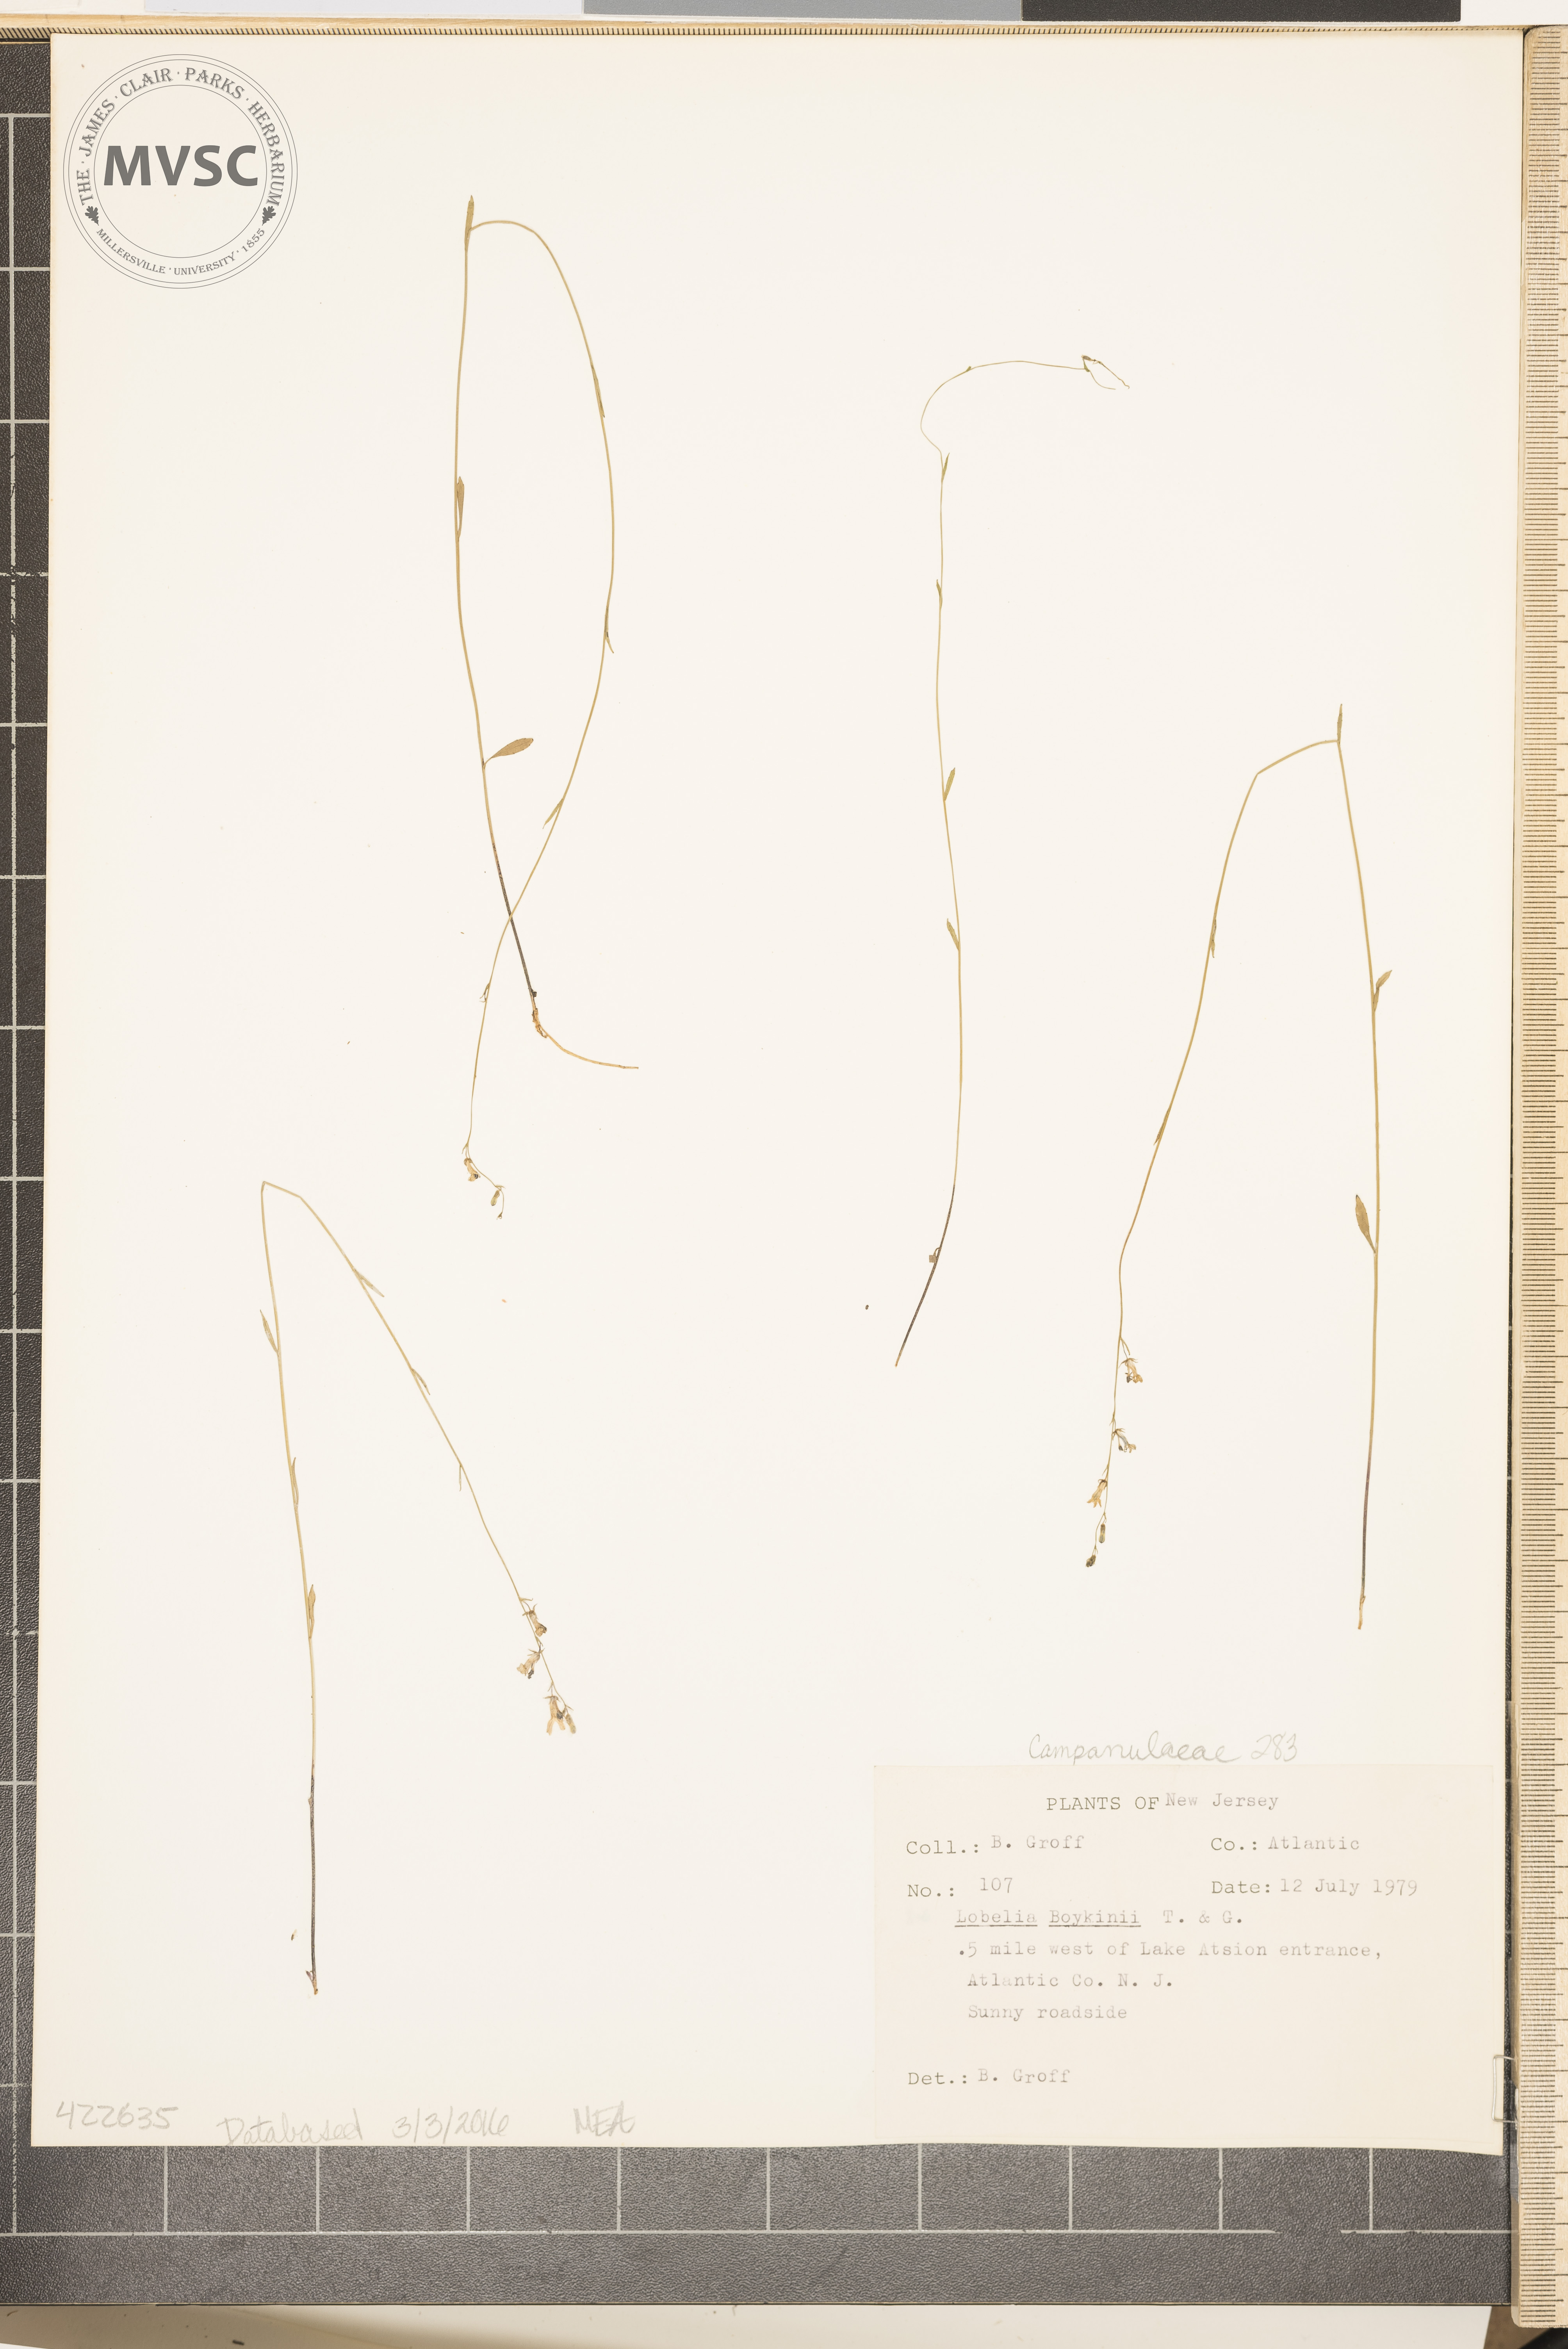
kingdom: Plantae
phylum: Tracheophyta
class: Magnoliopsida
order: Asterales
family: Campanulaceae
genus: Lobelia
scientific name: Lobelia nuttallii
